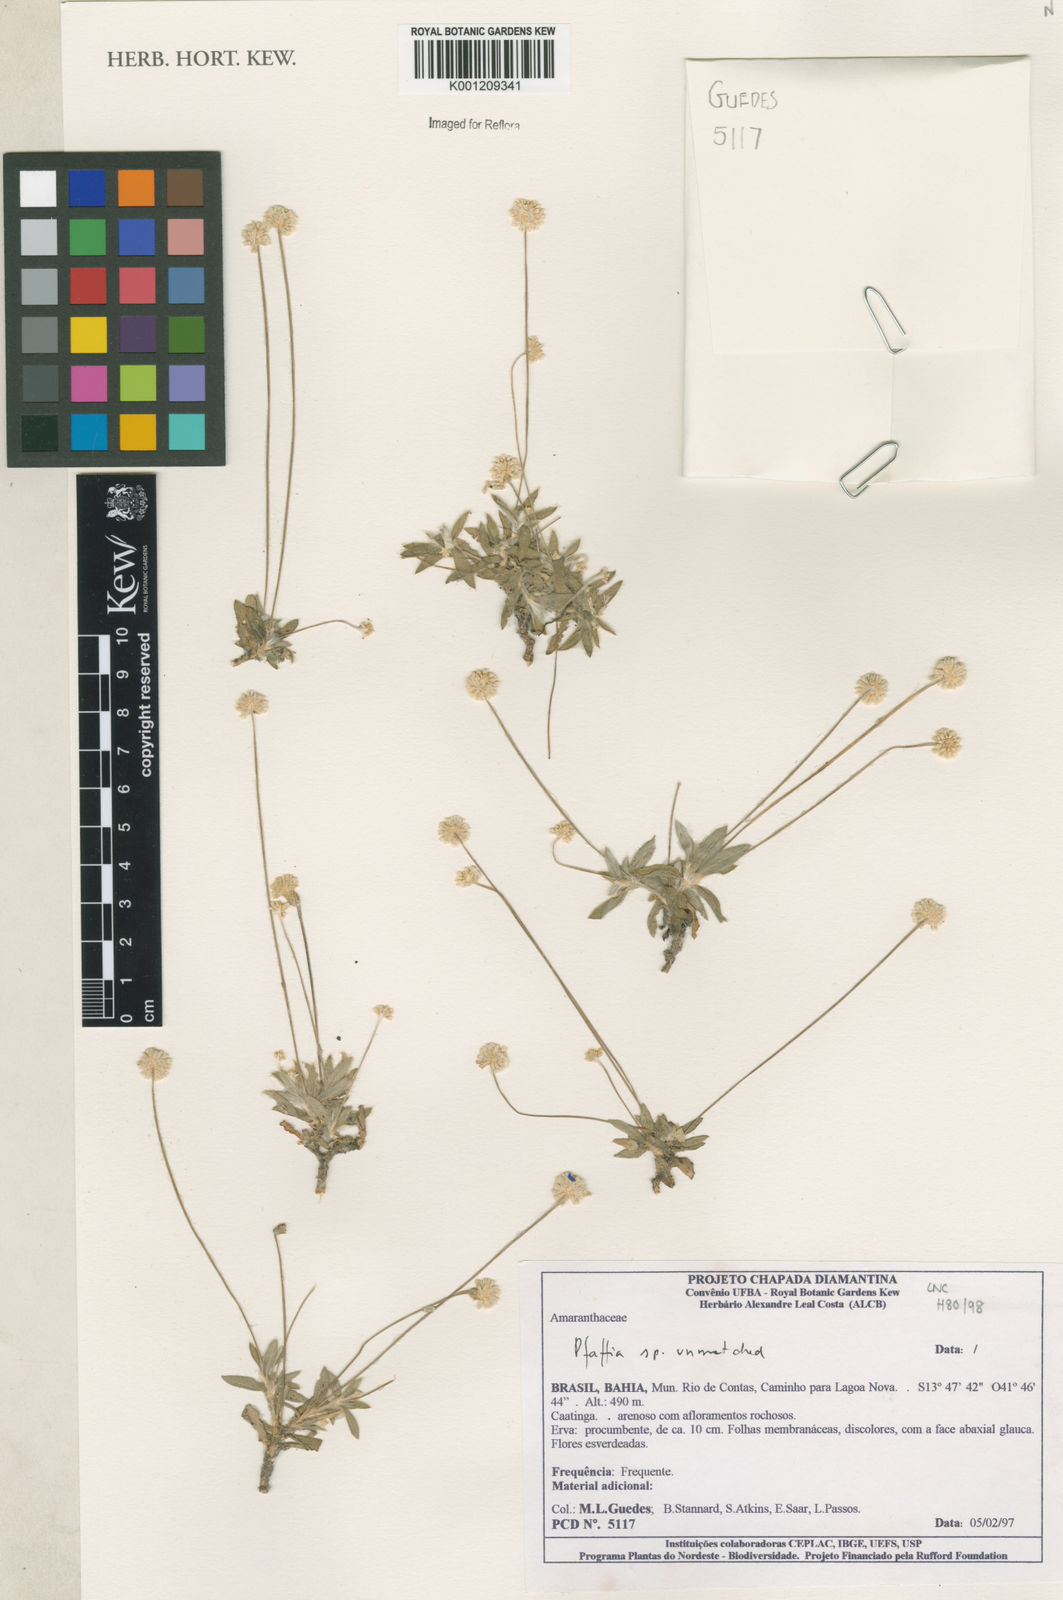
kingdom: Plantae
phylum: Tracheophyta
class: Magnoliopsida
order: Caryophyllales
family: Amaranthaceae
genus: Pfaffia
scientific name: Pfaffia
